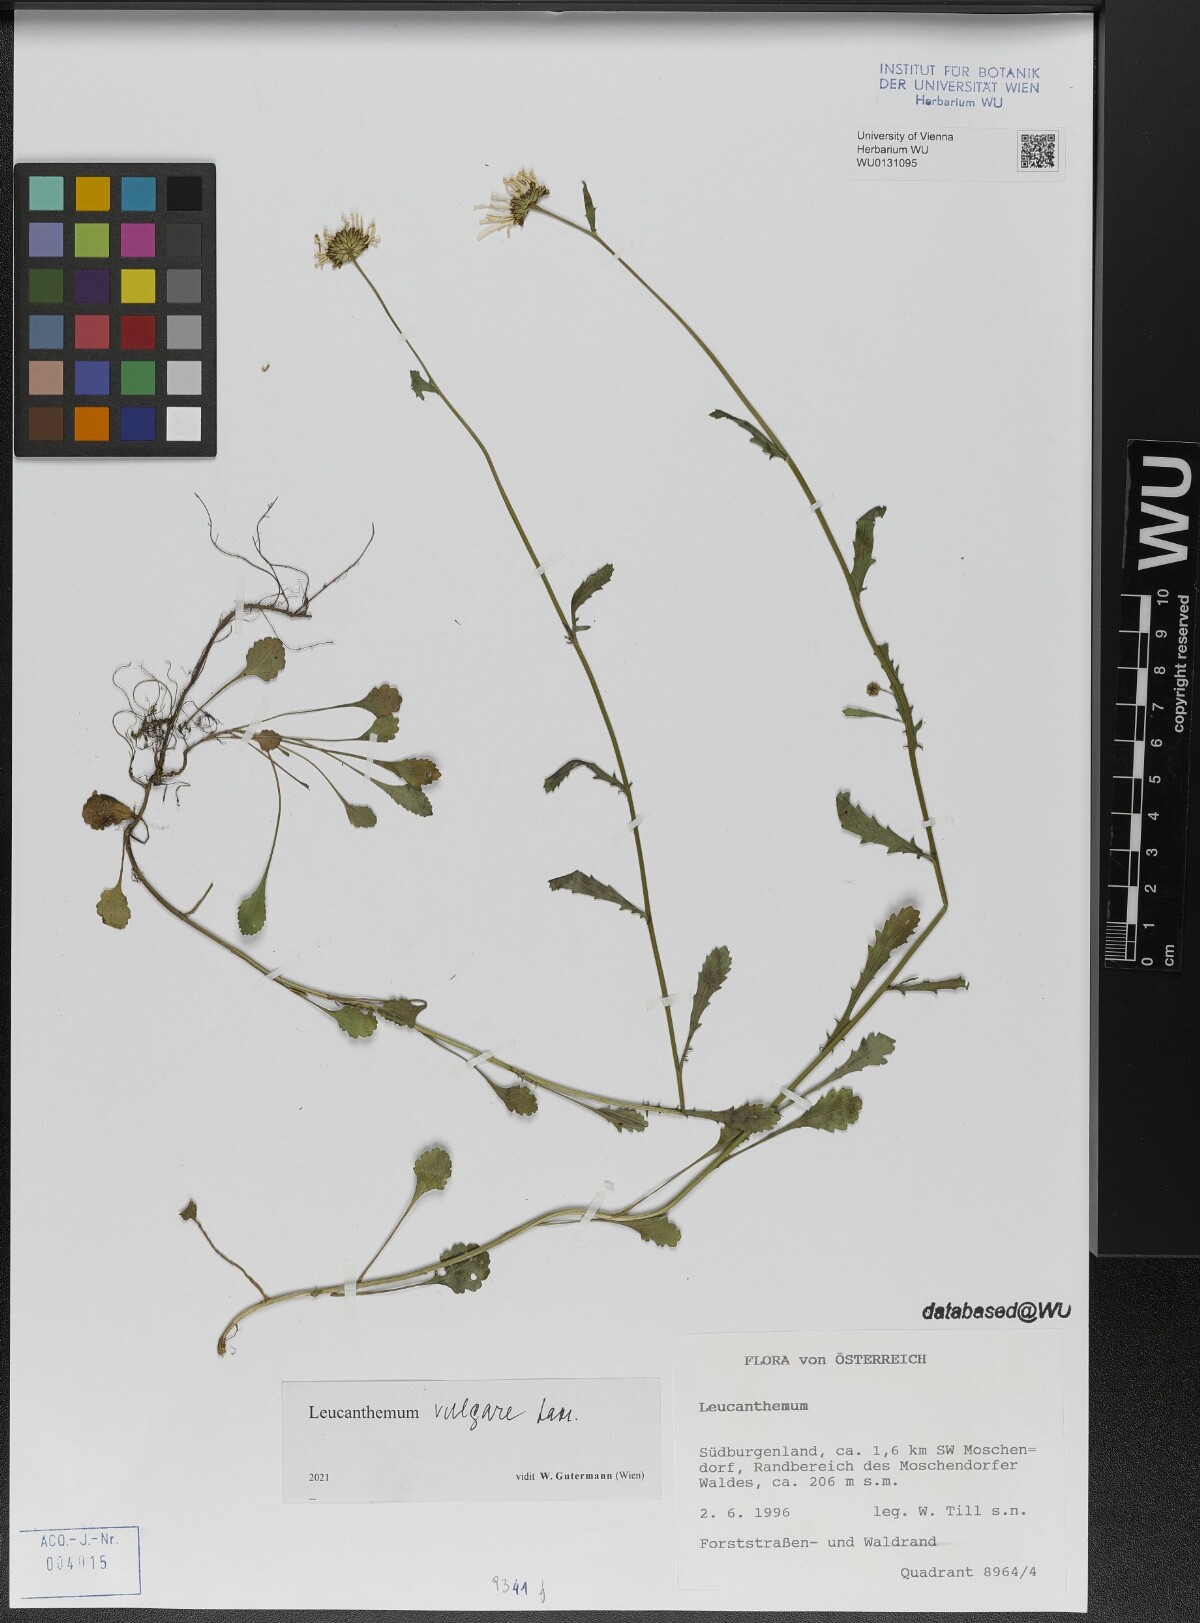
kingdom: Plantae
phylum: Tracheophyta
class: Magnoliopsida
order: Asterales
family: Asteraceae
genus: Leucanthemum
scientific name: Leucanthemum vulgare
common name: Oxeye daisy
